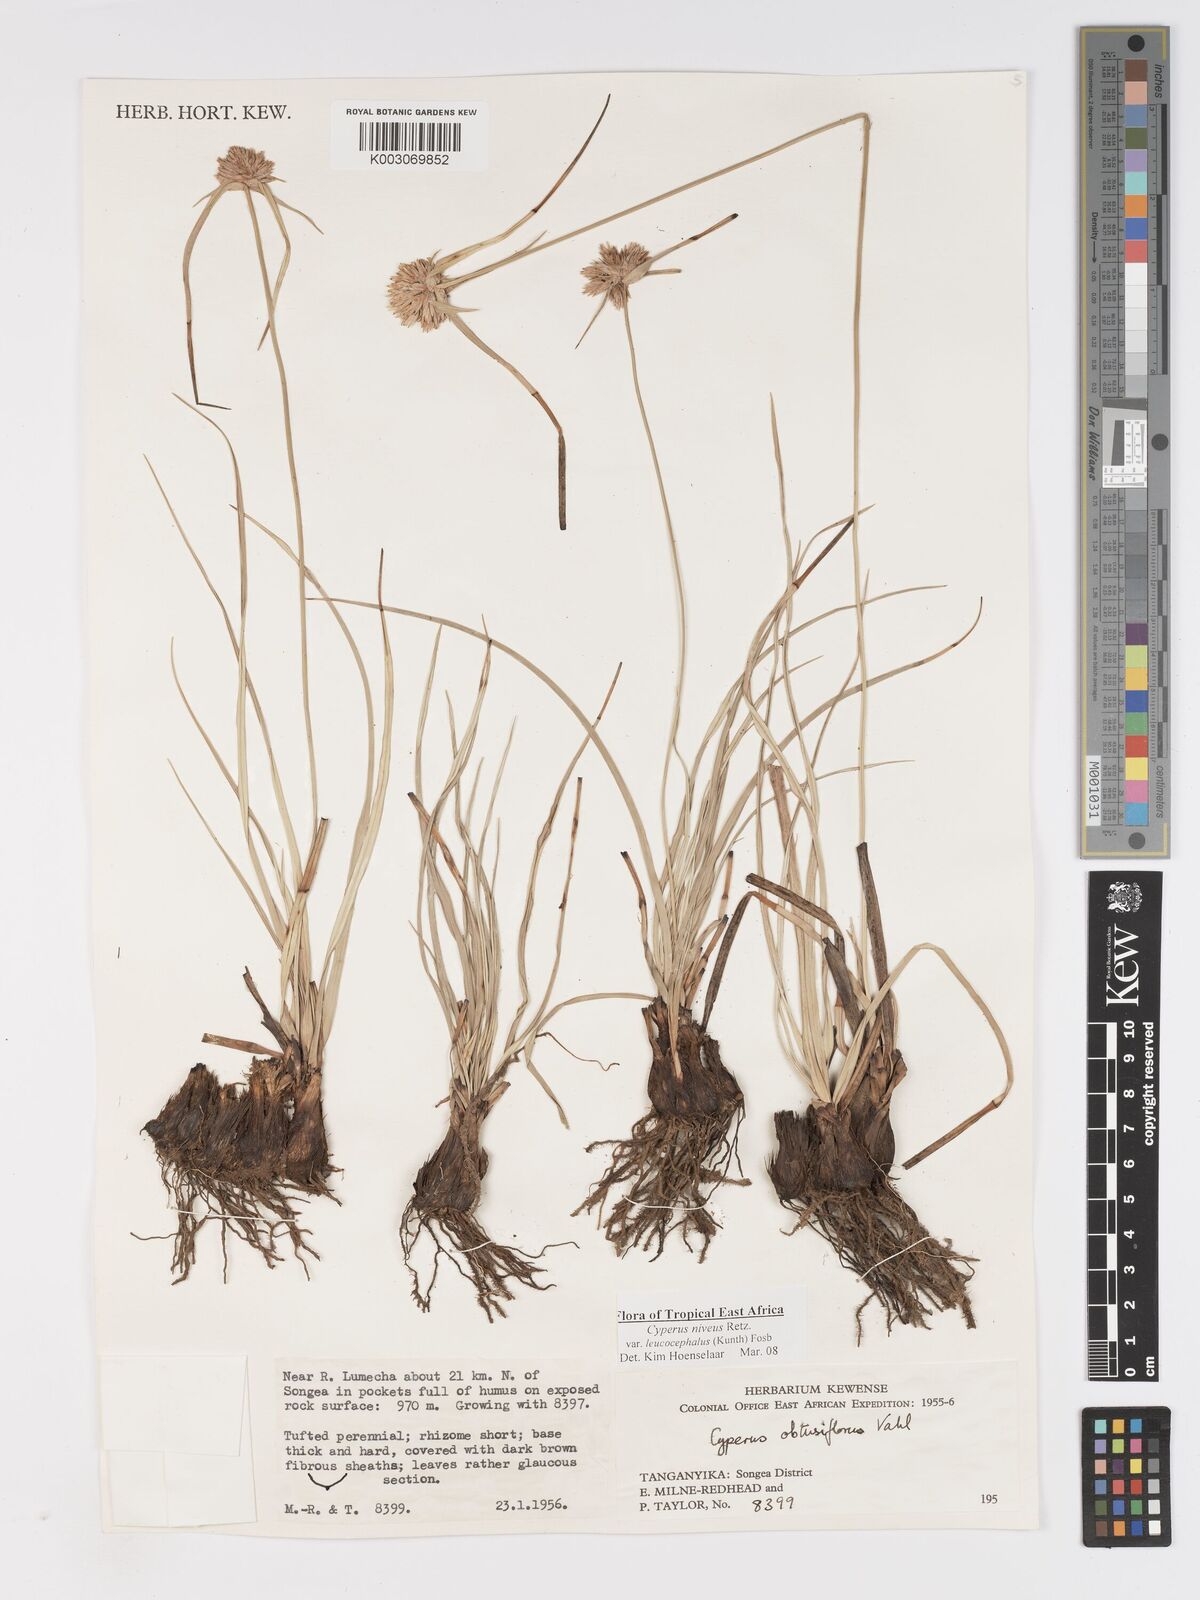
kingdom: Plantae
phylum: Tracheophyta
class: Liliopsida
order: Poales
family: Cyperaceae
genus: Cyperus
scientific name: Cyperus niveus
